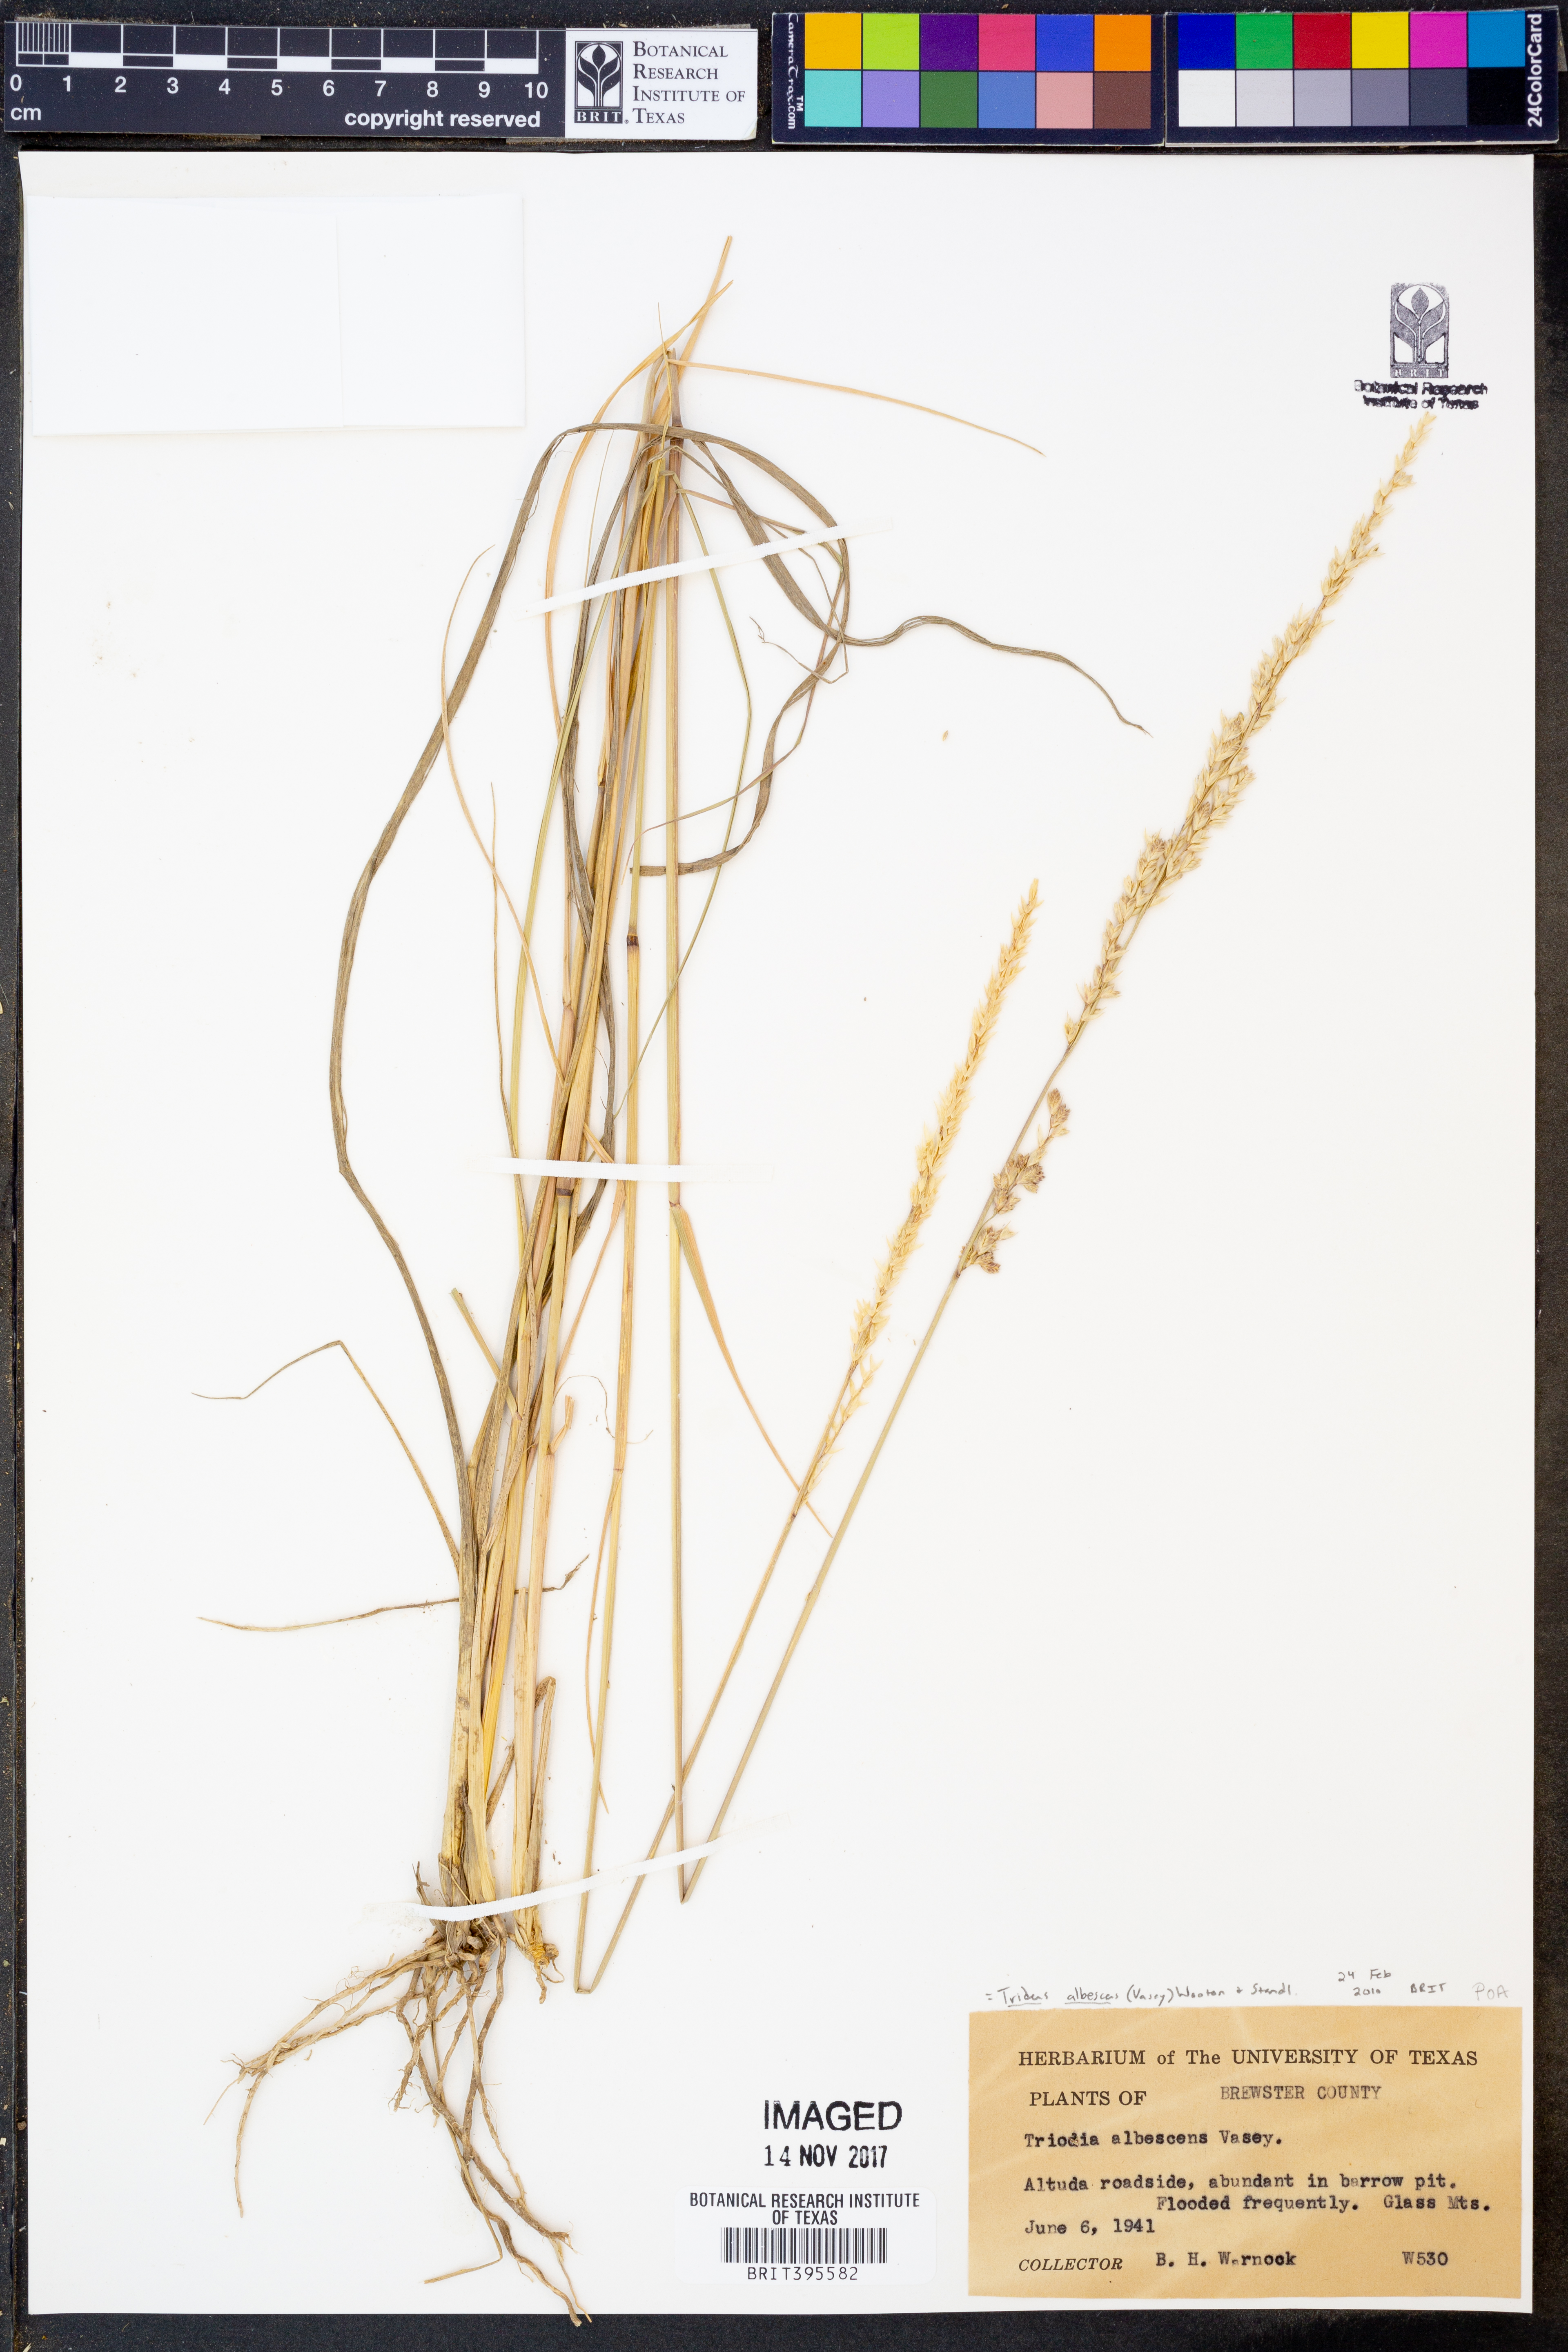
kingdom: Plantae
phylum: Tracheophyta
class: Liliopsida
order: Poales
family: Poaceae
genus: Tridens
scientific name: Tridens albescens
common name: White tridens
